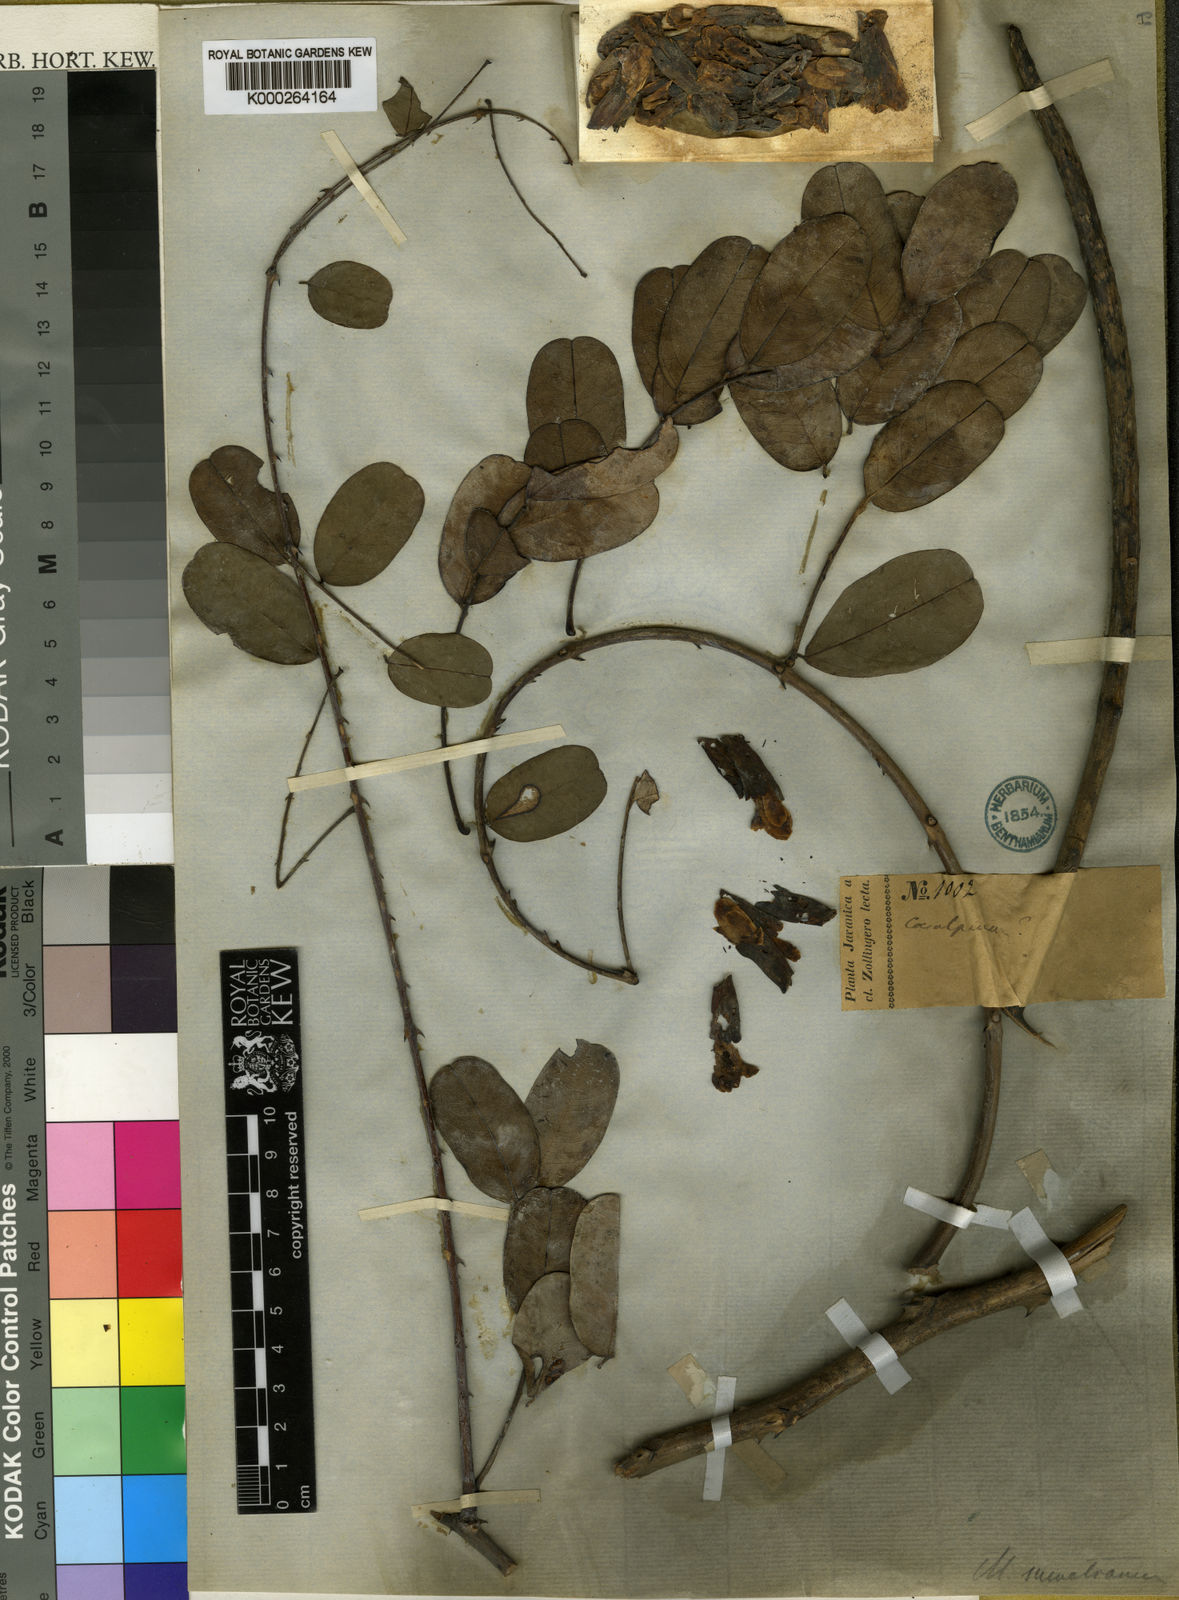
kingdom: Plantae
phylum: Tracheophyta
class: Magnoliopsida
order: Fabales
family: Fabaceae
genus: Mezoneuron
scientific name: Mezoneuron sumatranum
